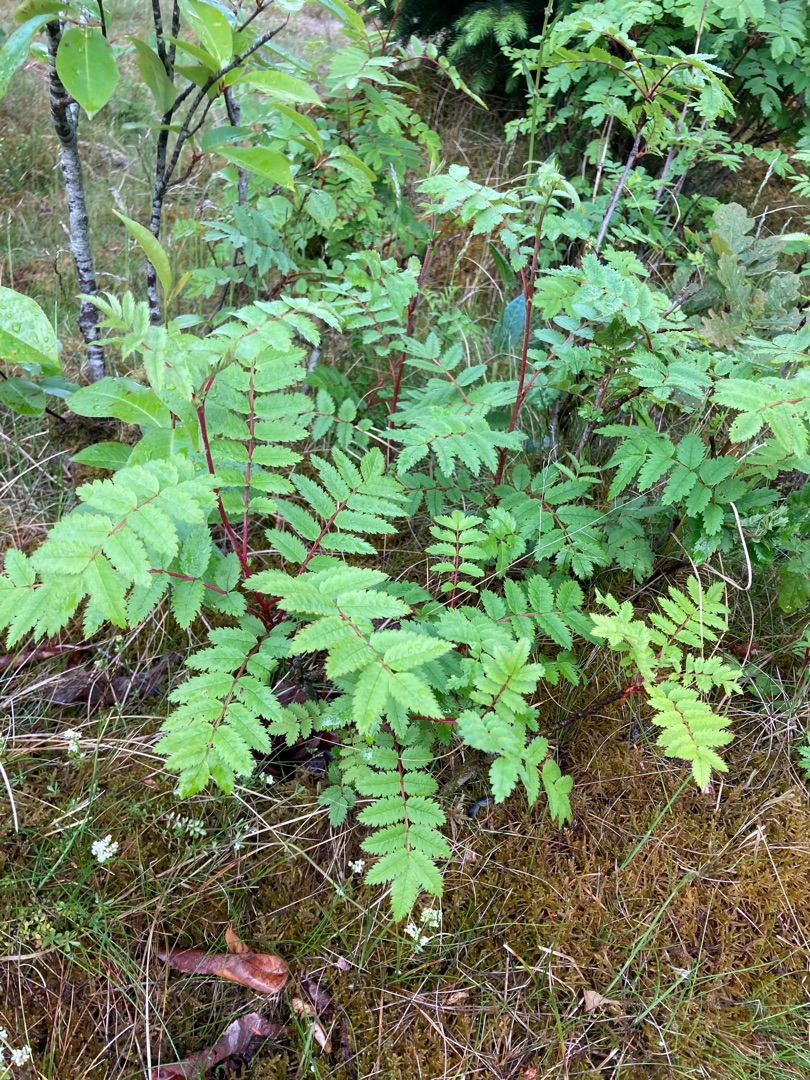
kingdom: Plantae
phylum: Tracheophyta
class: Magnoliopsida
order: Rosales
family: Rosaceae
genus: Sorbus
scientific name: Sorbus aucuparia
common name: Almindelig røn
